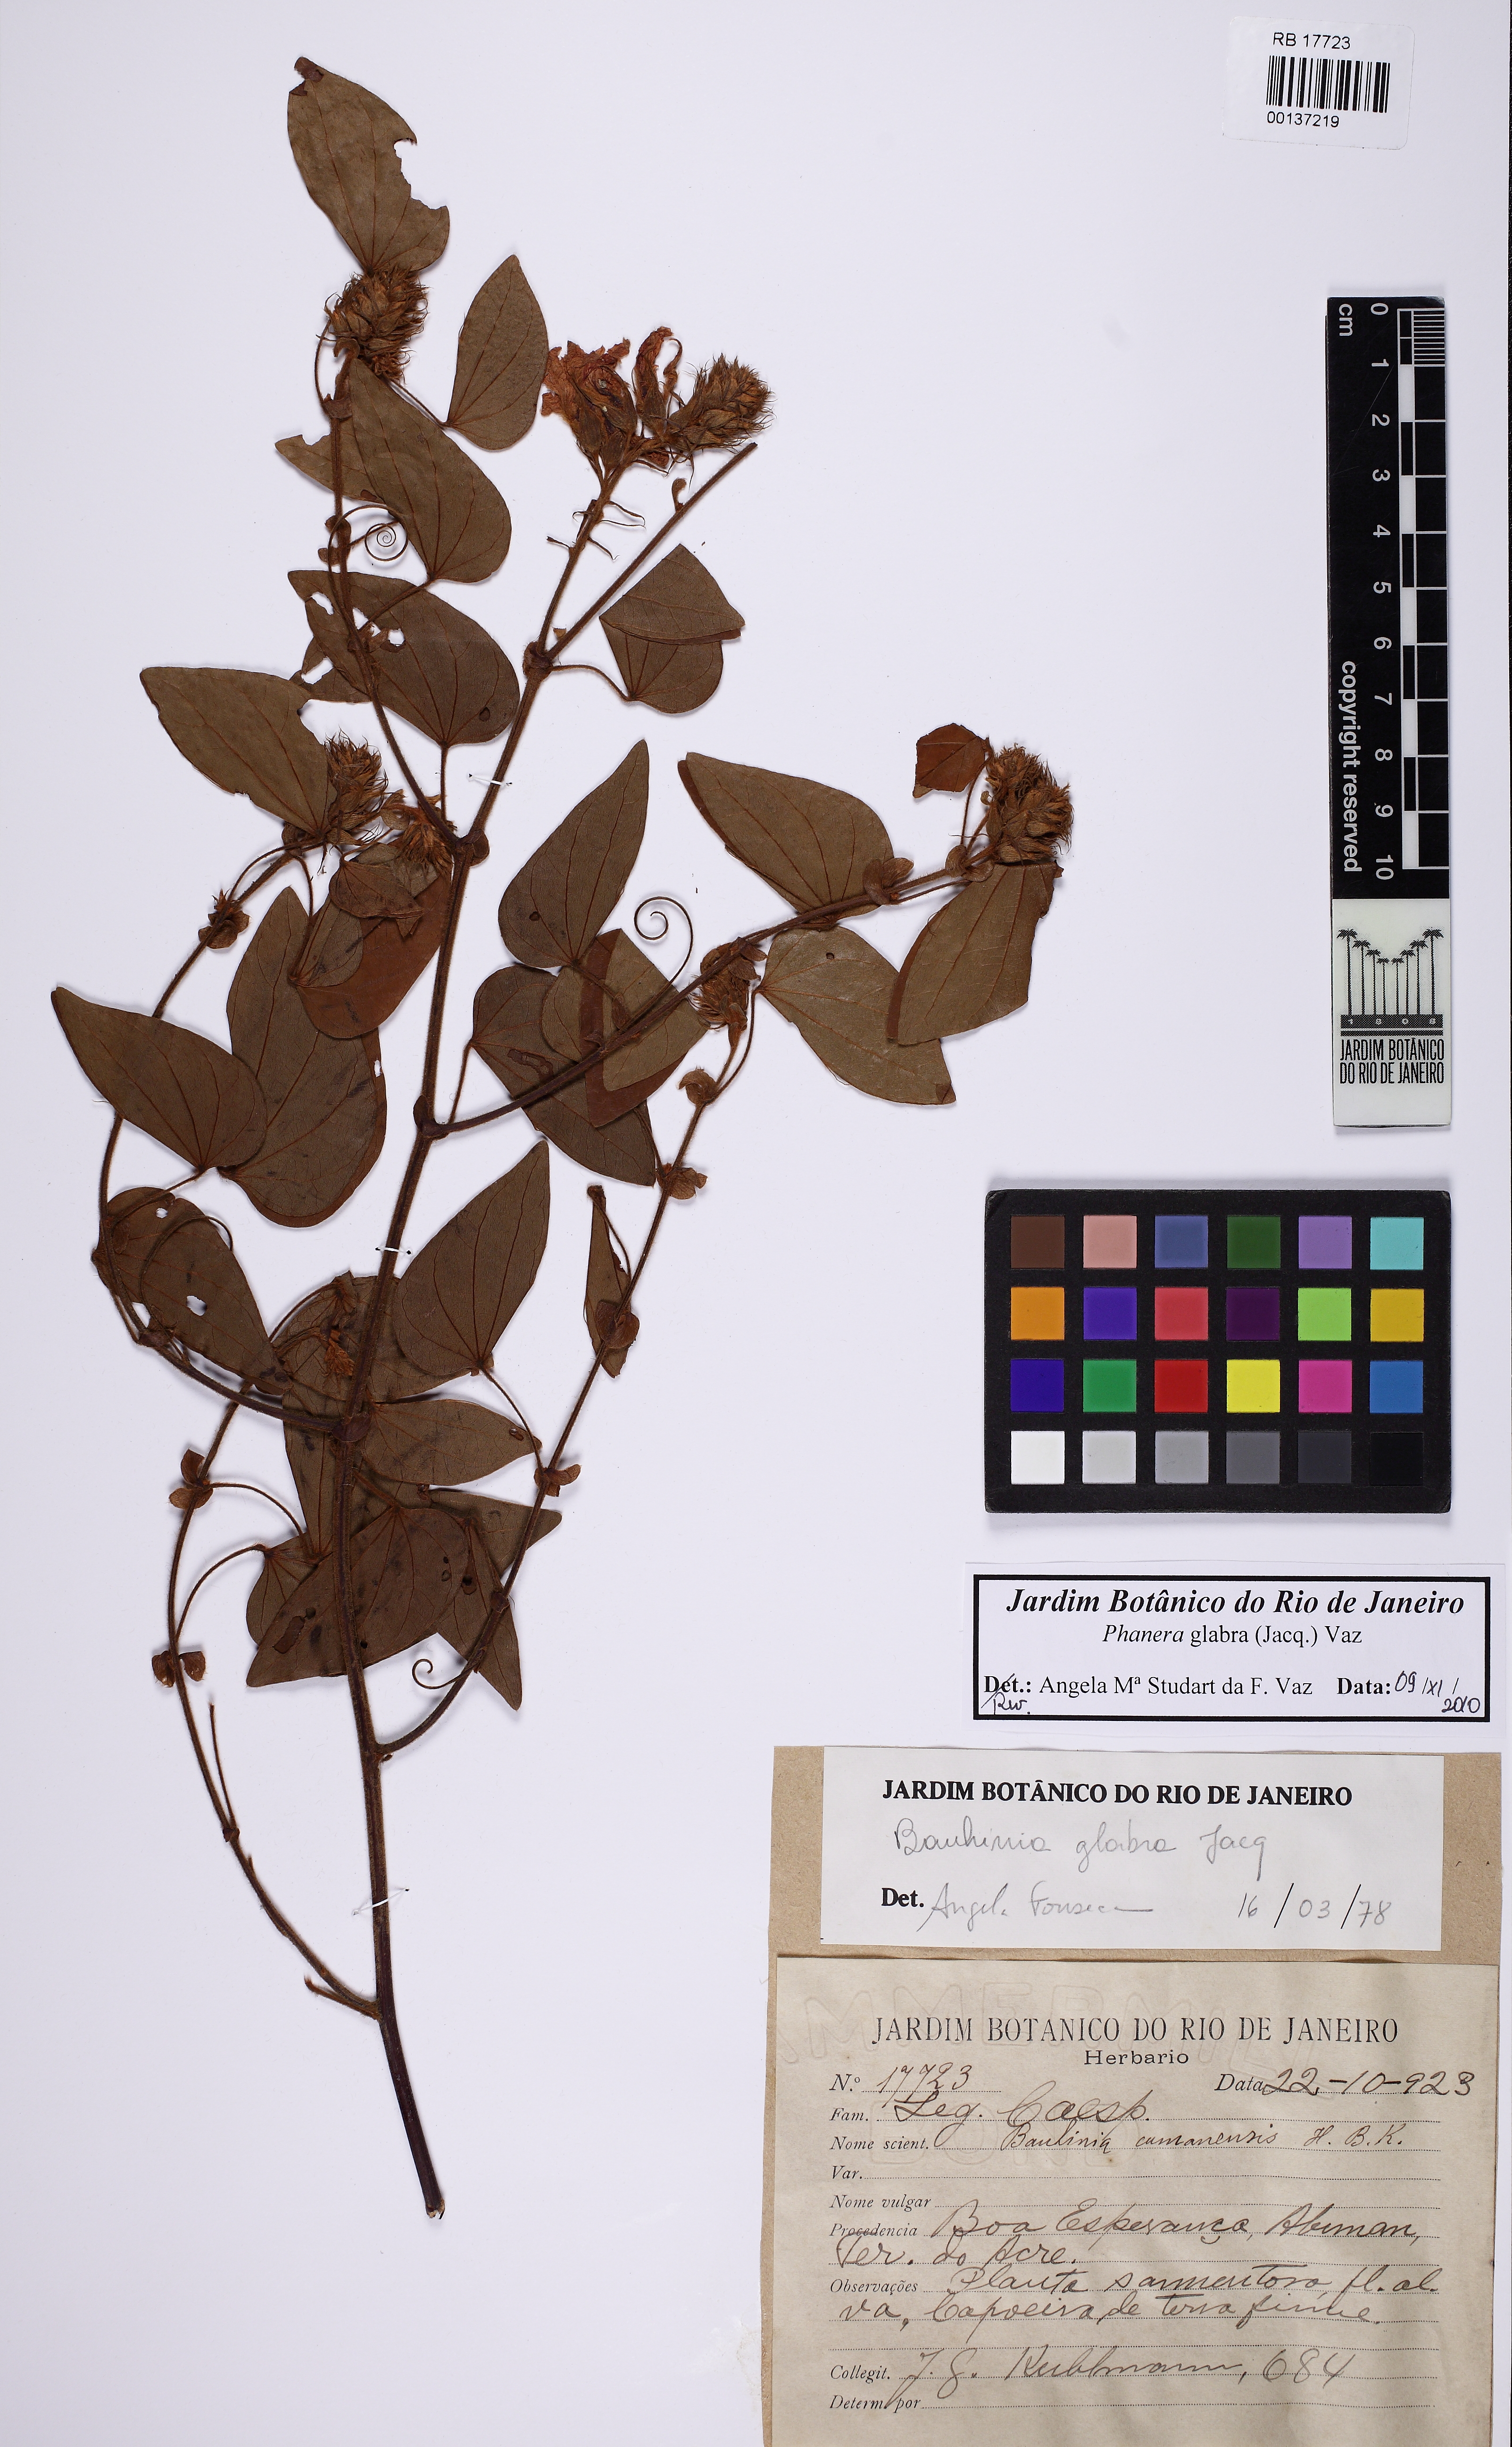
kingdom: Plantae
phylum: Tracheophyta
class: Magnoliopsida
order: Fabales
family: Fabaceae
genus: Schnella
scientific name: Schnella glabra
